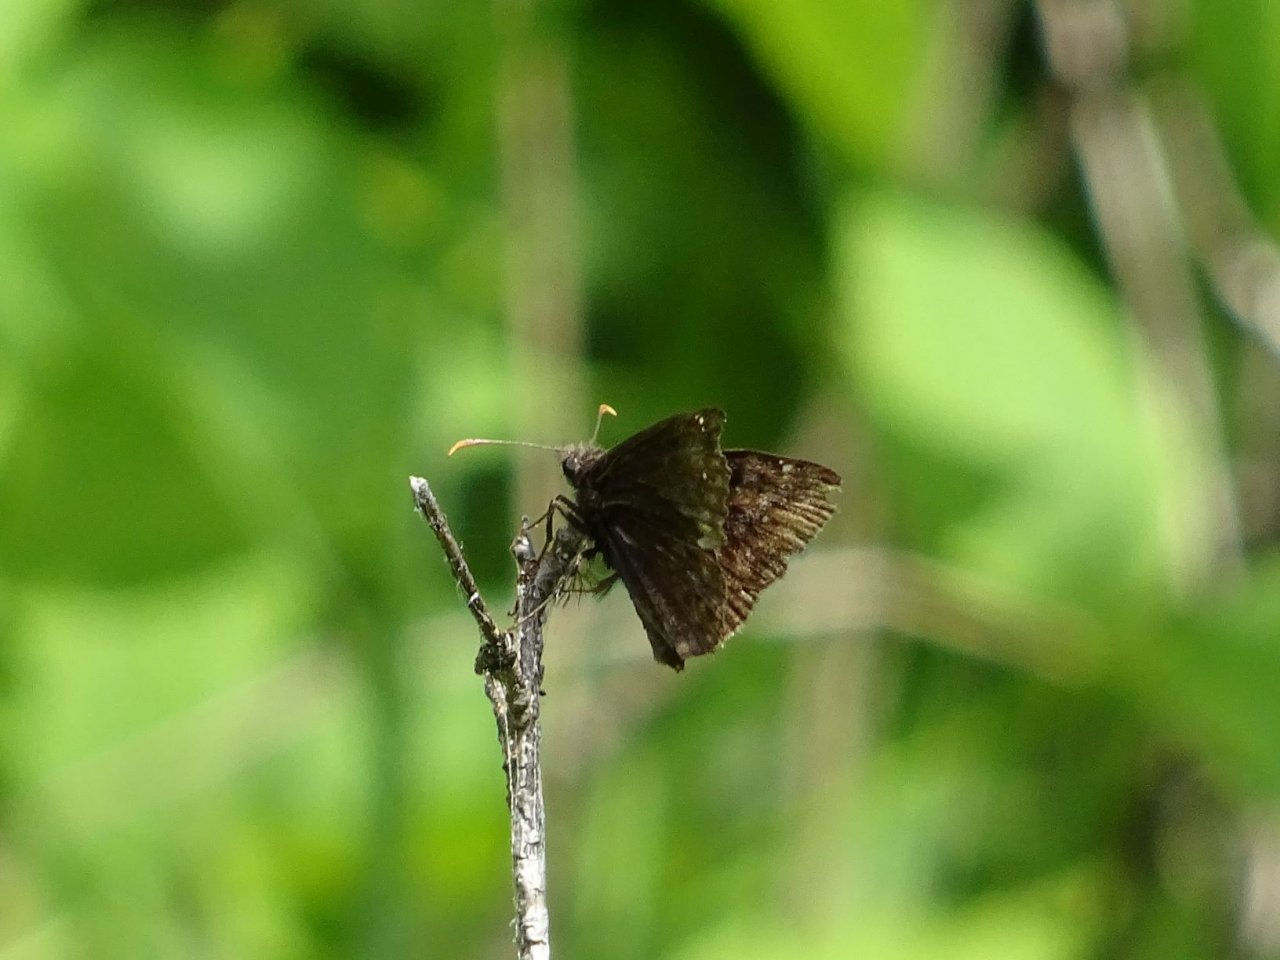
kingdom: Animalia
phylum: Arthropoda
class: Insecta
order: Lepidoptera
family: Hesperiidae
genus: Gesta
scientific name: Gesta
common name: Wild Indigo Duskywing
